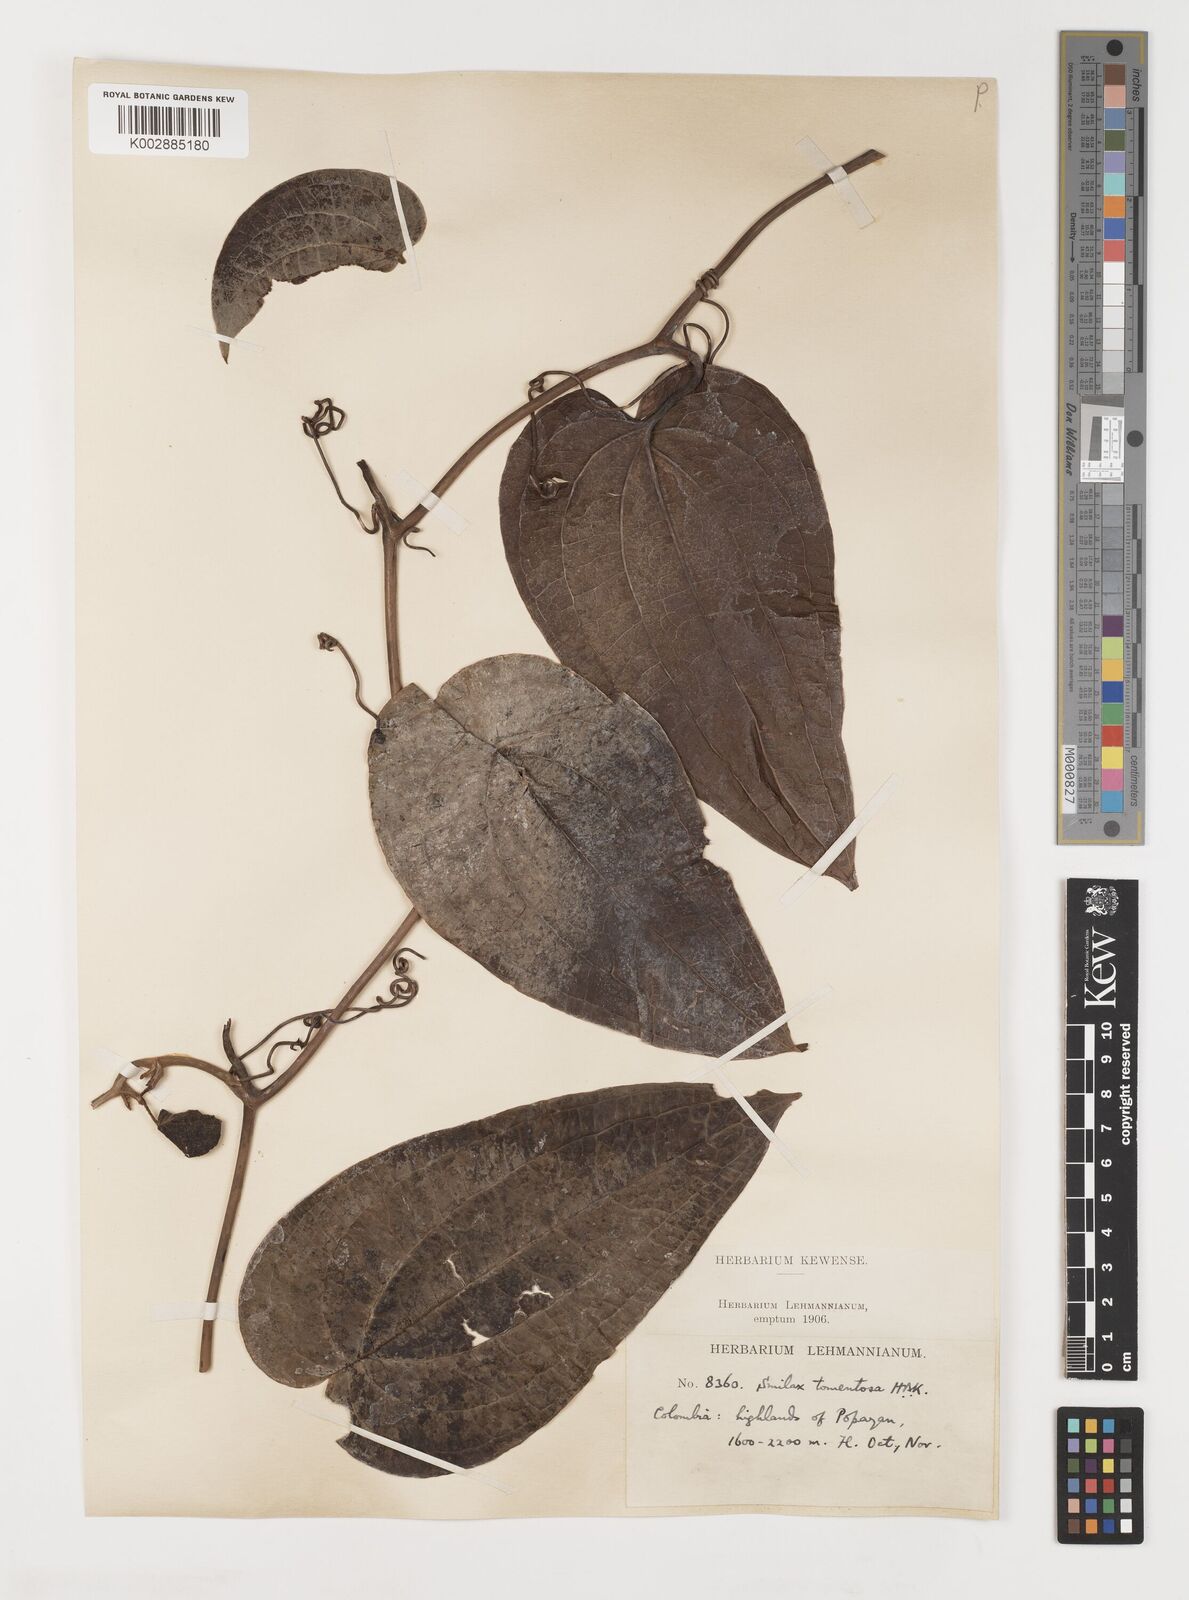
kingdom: Plantae
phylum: Tracheophyta
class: Liliopsida
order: Liliales
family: Smilacaceae
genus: Smilax
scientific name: Smilax tomentosa
